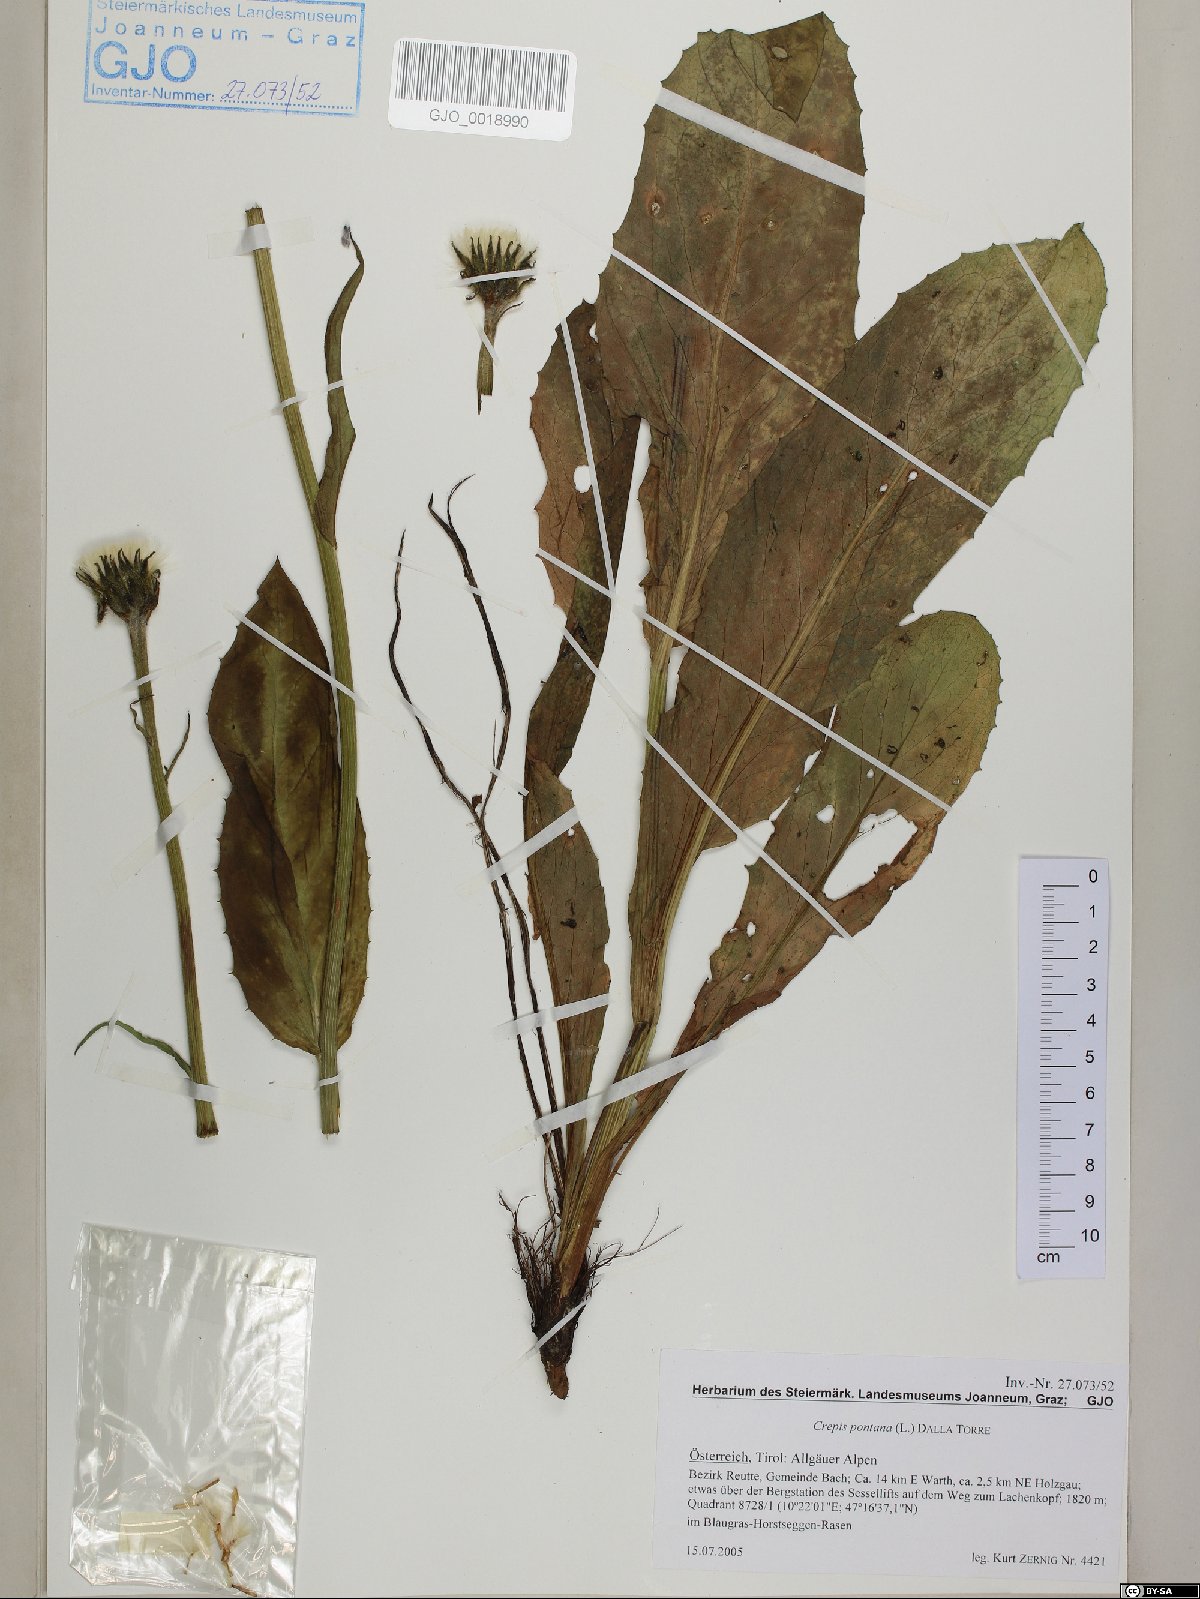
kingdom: Plantae
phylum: Tracheophyta
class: Magnoliopsida
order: Asterales
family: Asteraceae
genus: Crepis
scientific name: Crepis pontana
